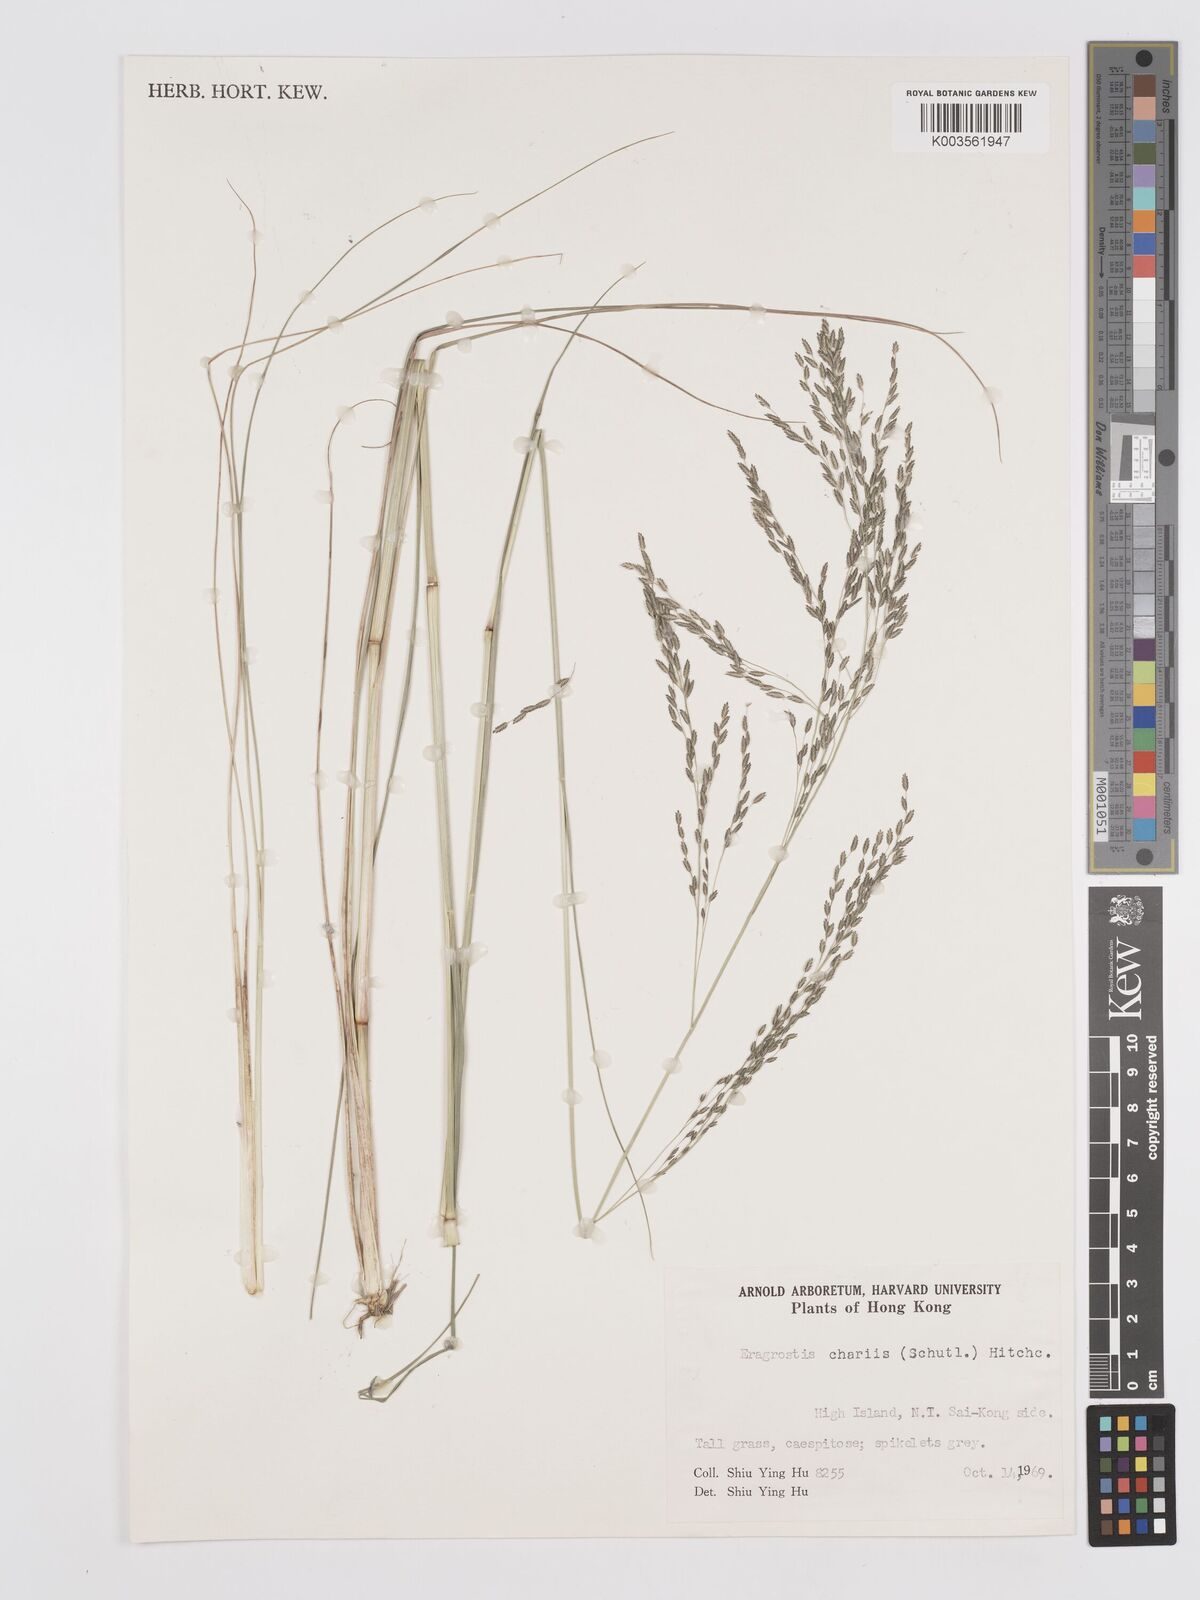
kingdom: Plantae
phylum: Tracheophyta
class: Liliopsida
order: Poales
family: Poaceae
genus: Eragrostis
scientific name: Eragrostis atrovirens
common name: Thalia lovegrass
